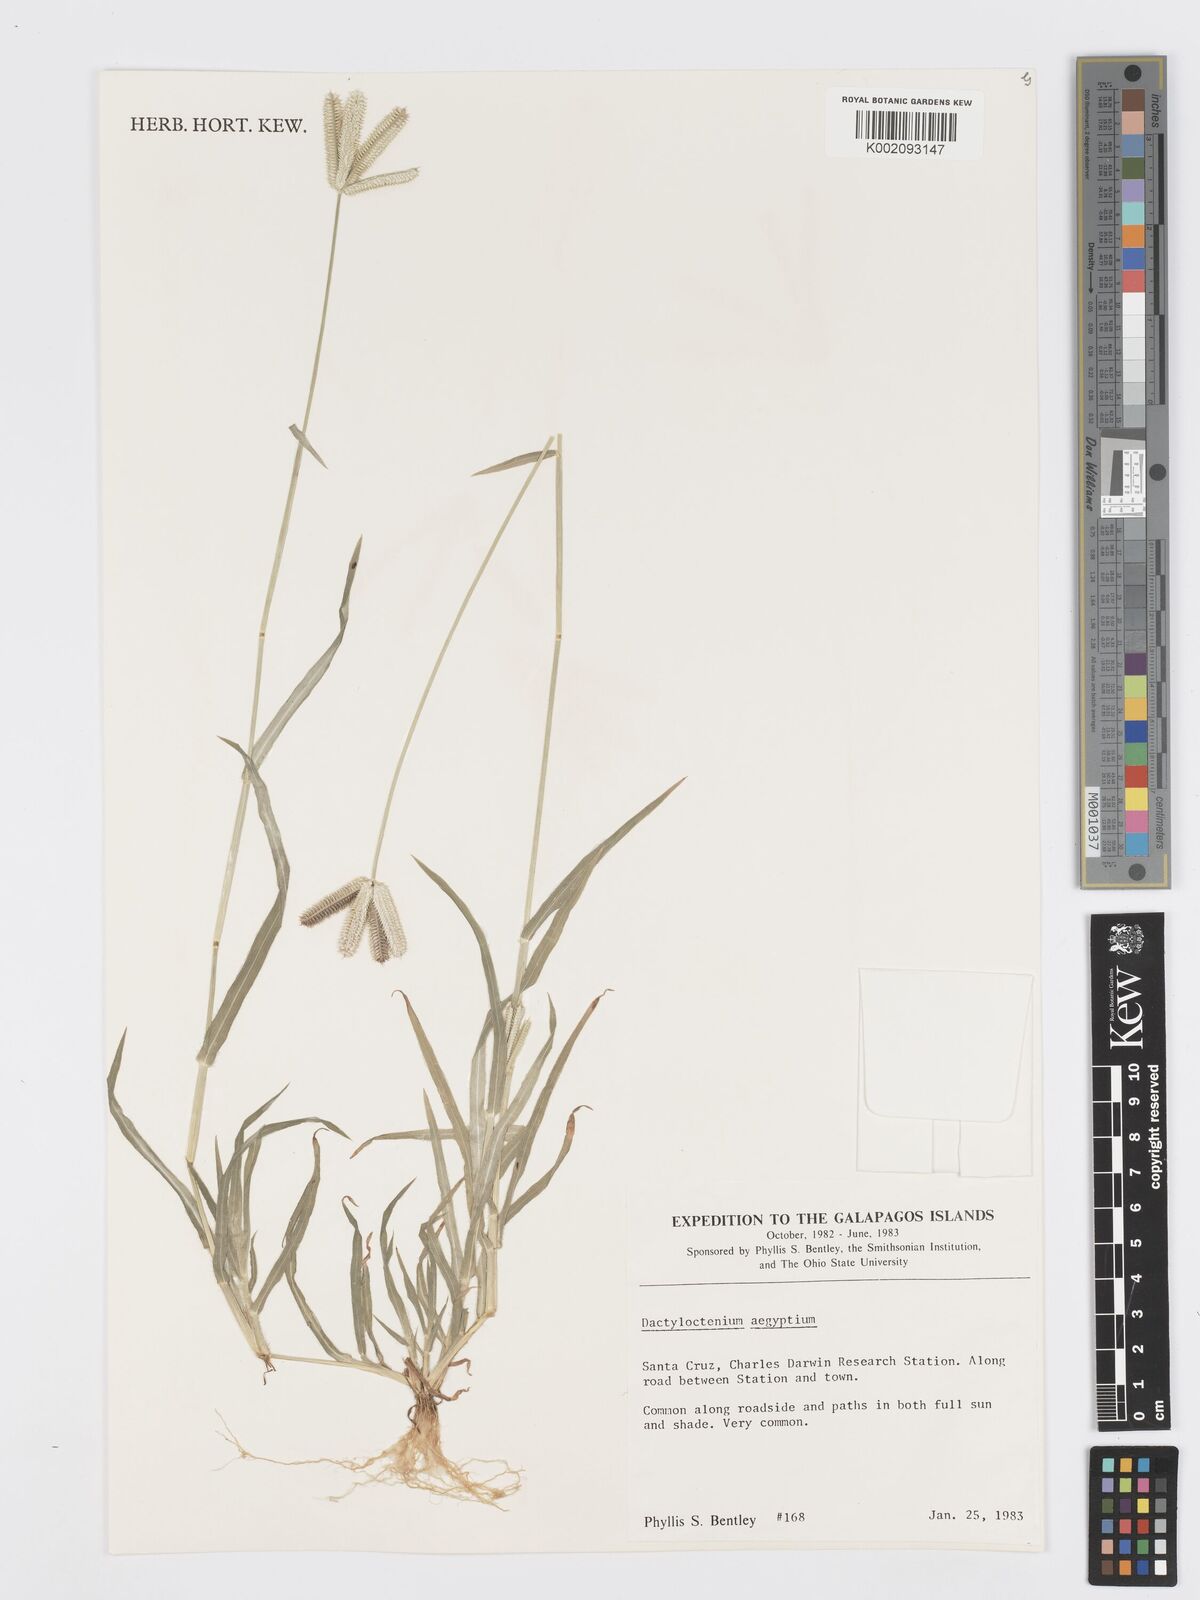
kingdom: Plantae
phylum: Tracheophyta
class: Liliopsida
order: Poales
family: Poaceae
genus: Dactyloctenium
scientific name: Dactyloctenium aegyptium
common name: Egyptian grass
